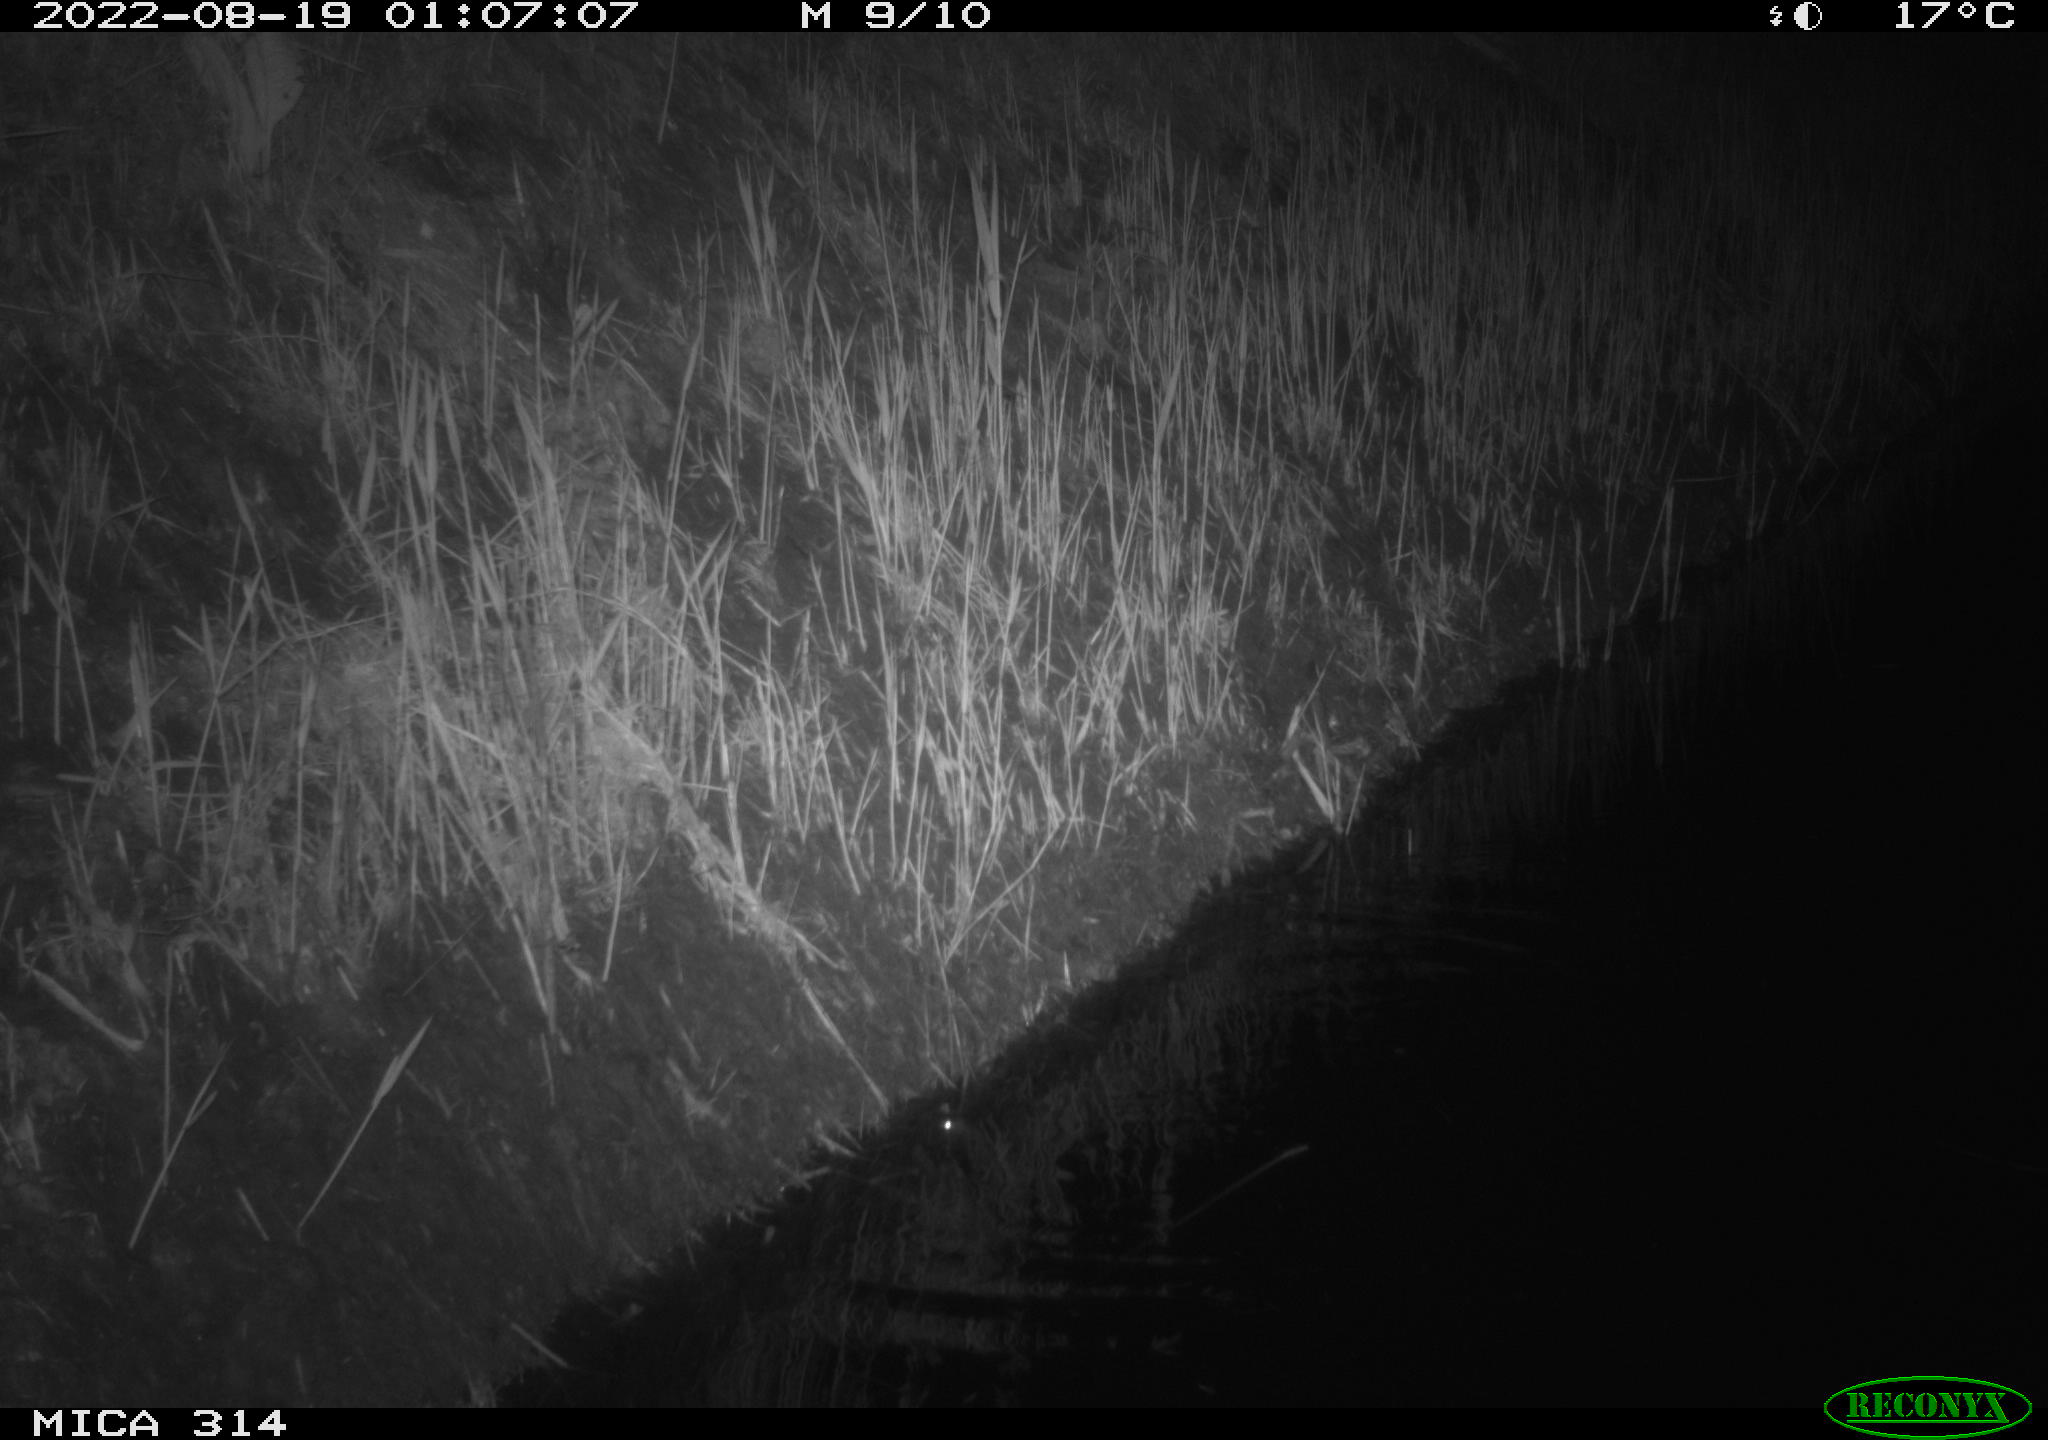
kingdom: Animalia
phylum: Chordata
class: Mammalia
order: Rodentia
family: Muridae
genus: Rattus
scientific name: Rattus norvegicus
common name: Brown rat
